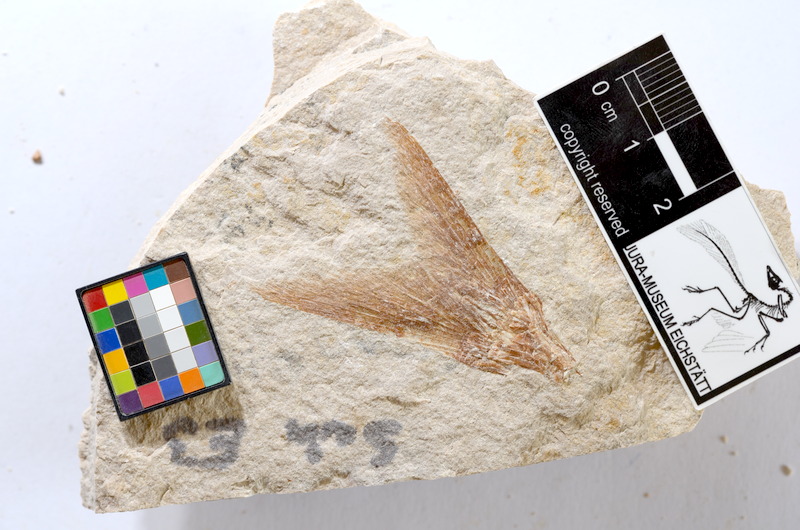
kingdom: Animalia
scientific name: Animalia
